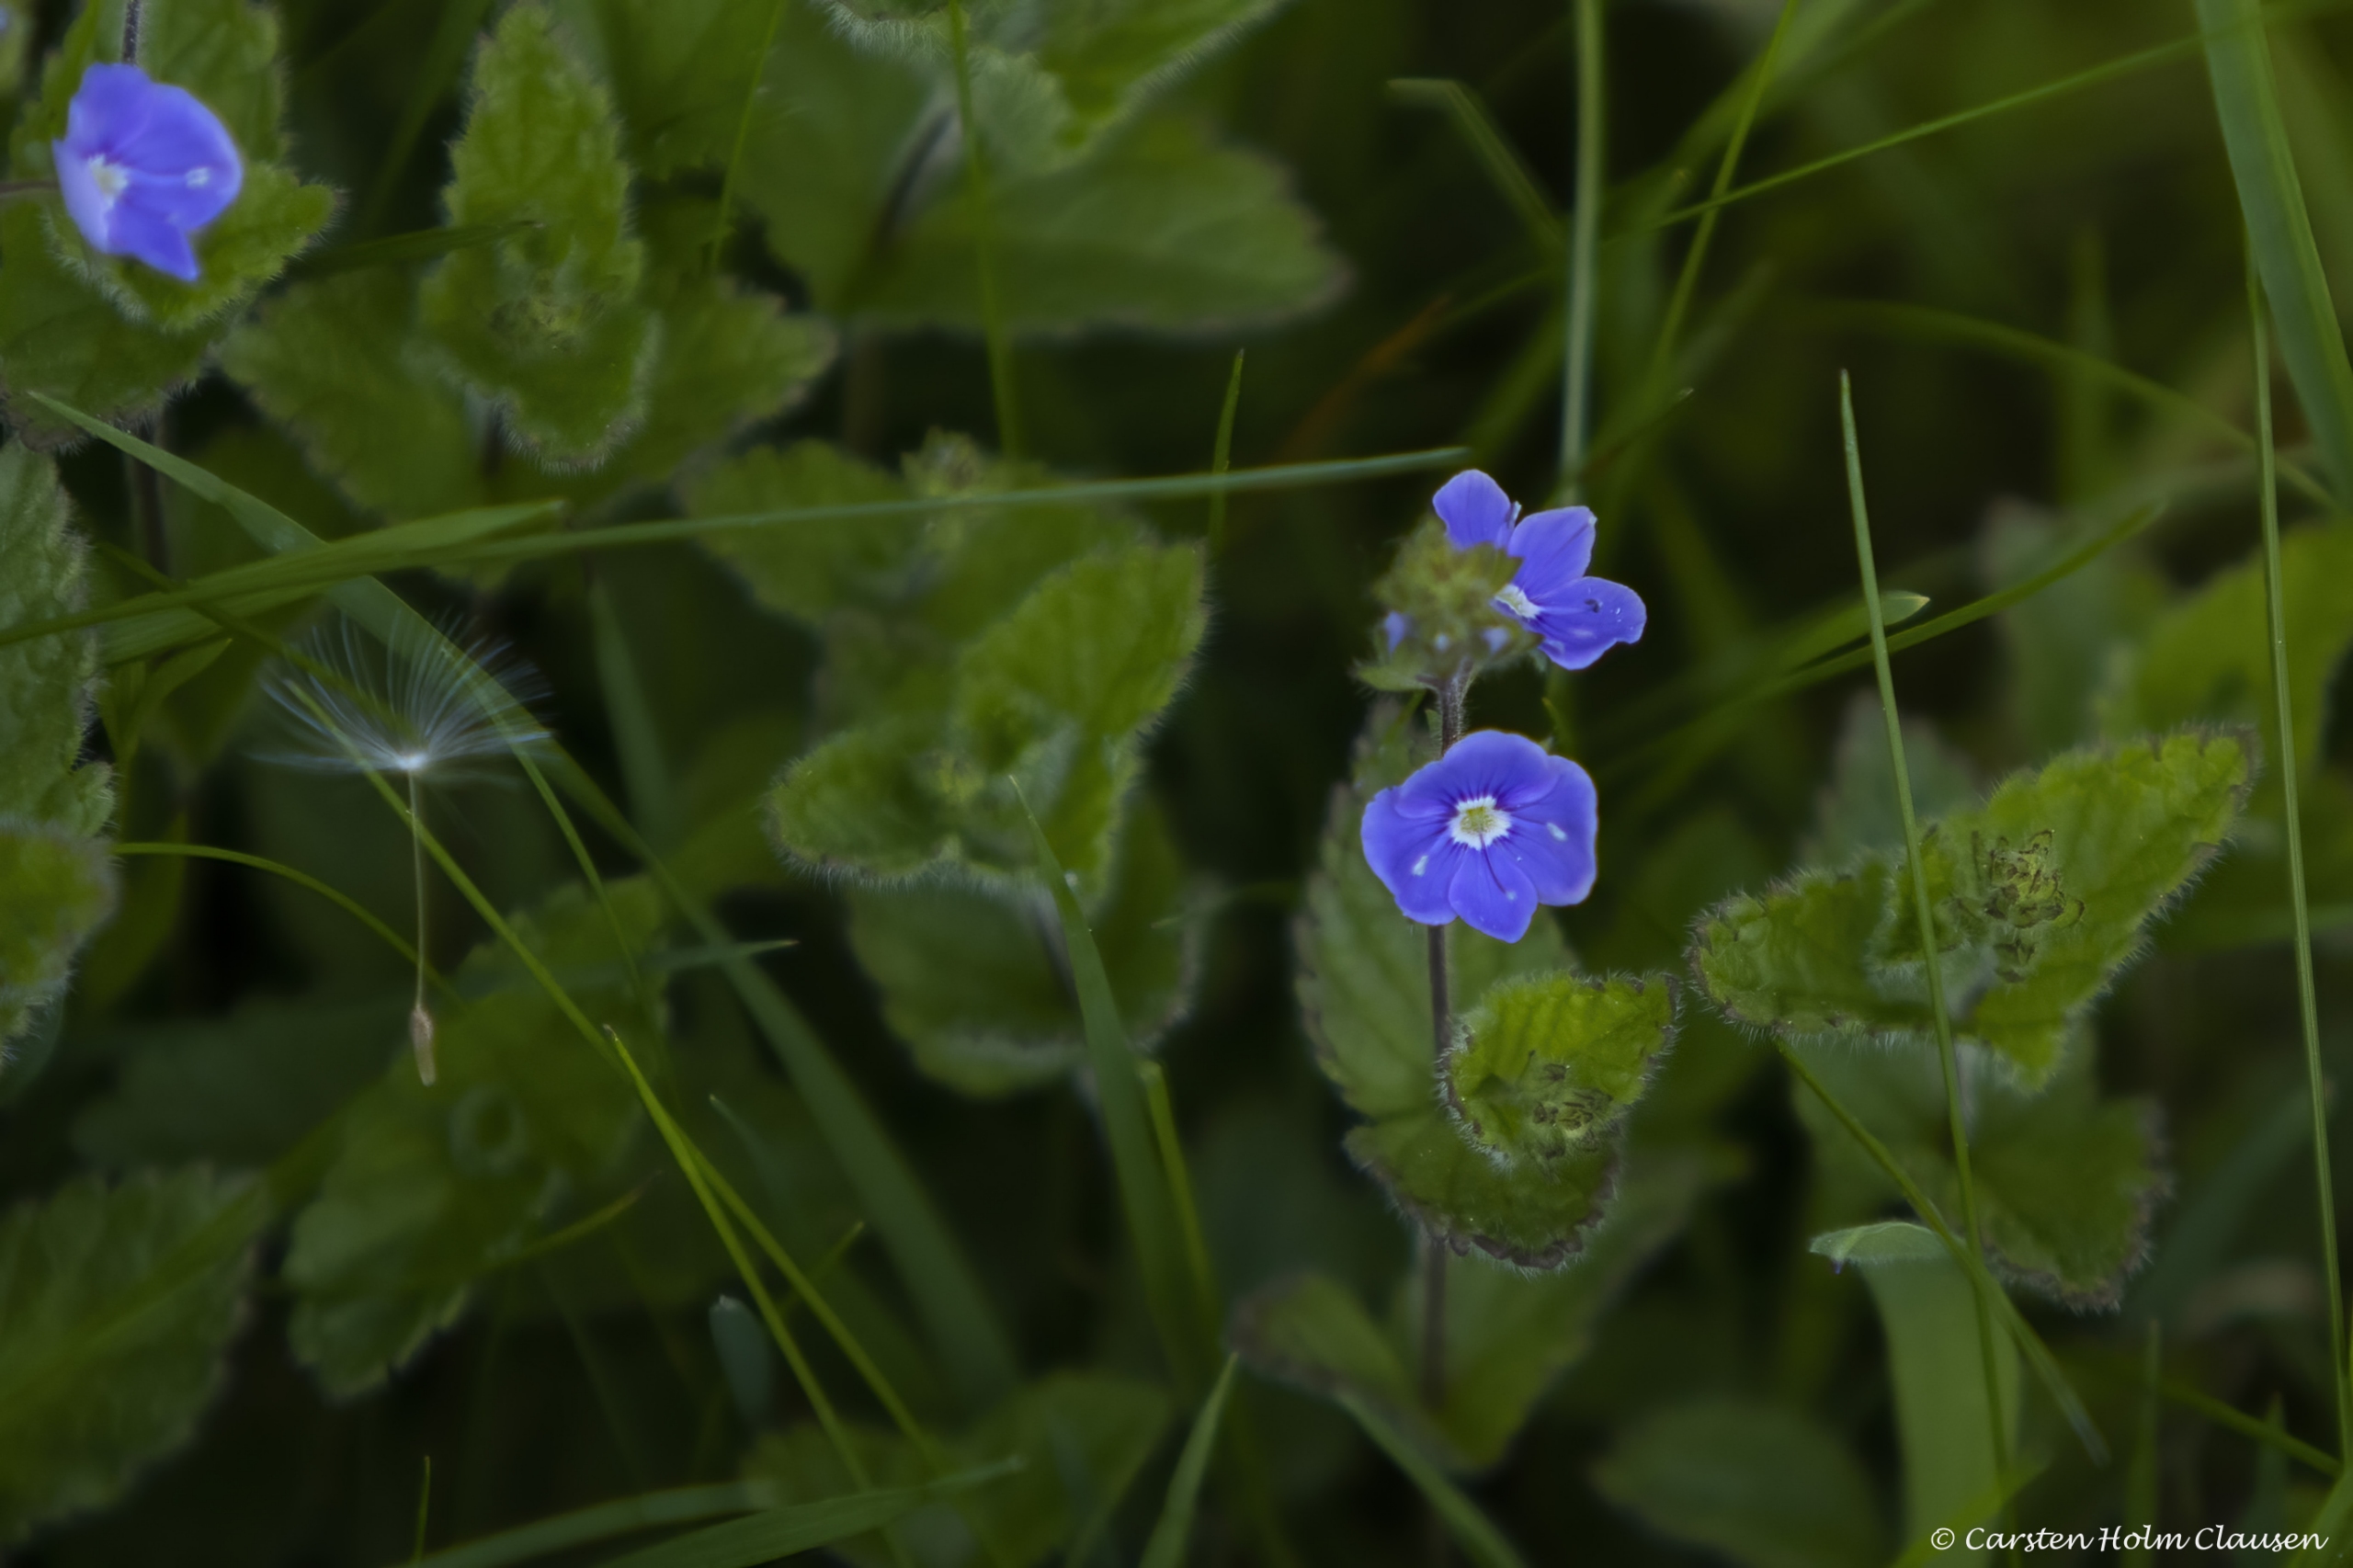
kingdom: Plantae
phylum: Tracheophyta
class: Magnoliopsida
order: Lamiales
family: Plantaginaceae
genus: Veronica
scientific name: Veronica chamaedrys
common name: Tveskægget ærenpris
